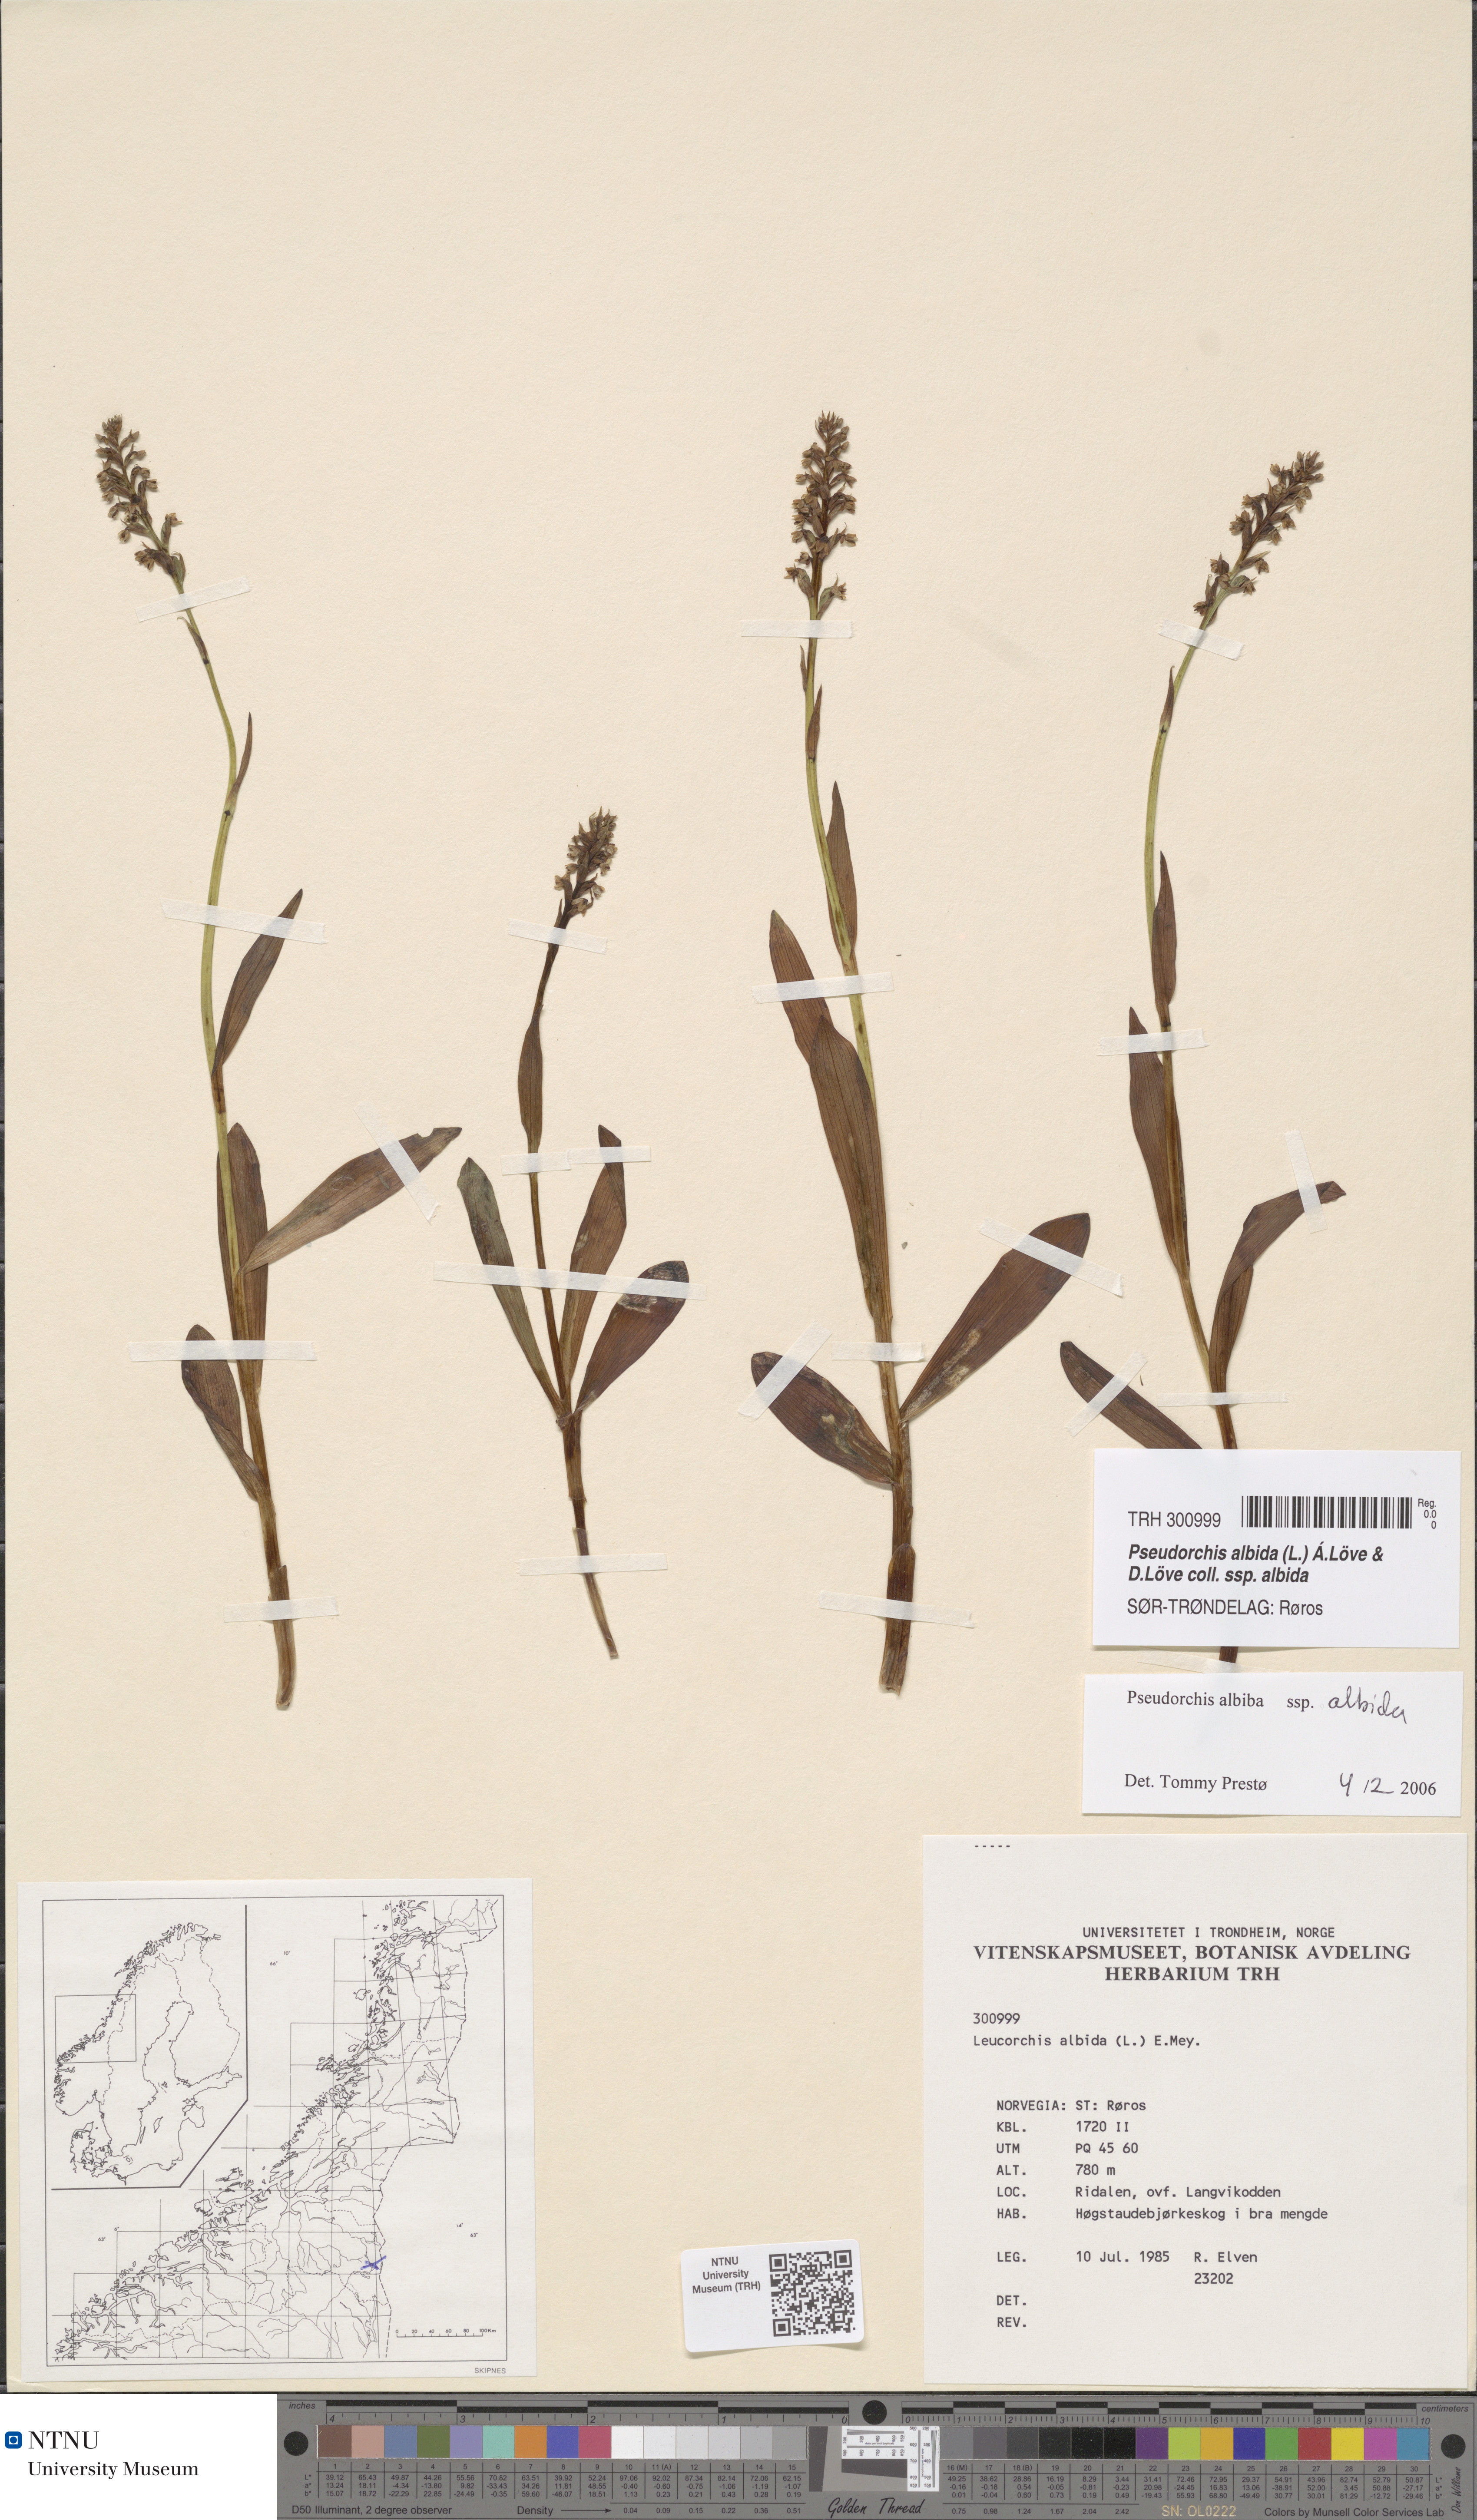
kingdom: Plantae
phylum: Tracheophyta
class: Liliopsida
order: Asparagales
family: Orchidaceae
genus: Pseudorchis
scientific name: Pseudorchis albida
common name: Small-white orchid
